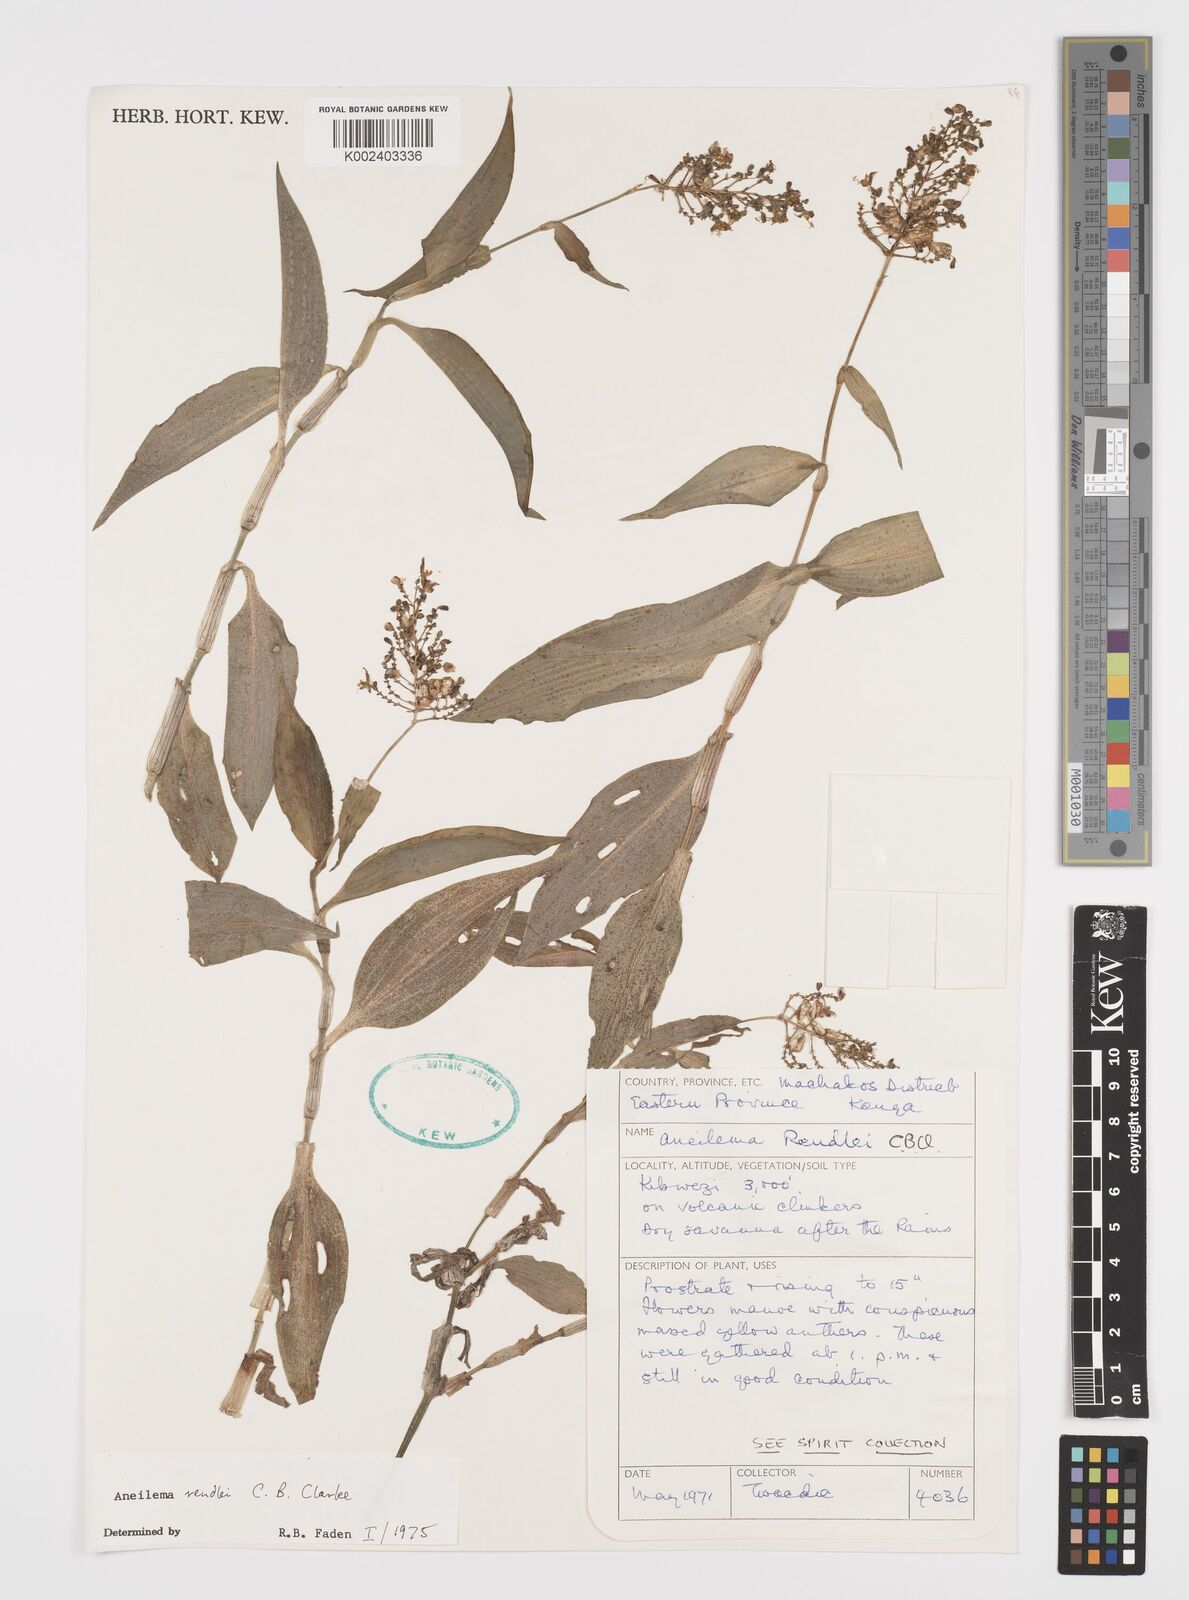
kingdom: Plantae
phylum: Tracheophyta
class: Liliopsida
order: Commelinales
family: Commelinaceae
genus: Aneilema
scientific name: Aneilema rendlei
